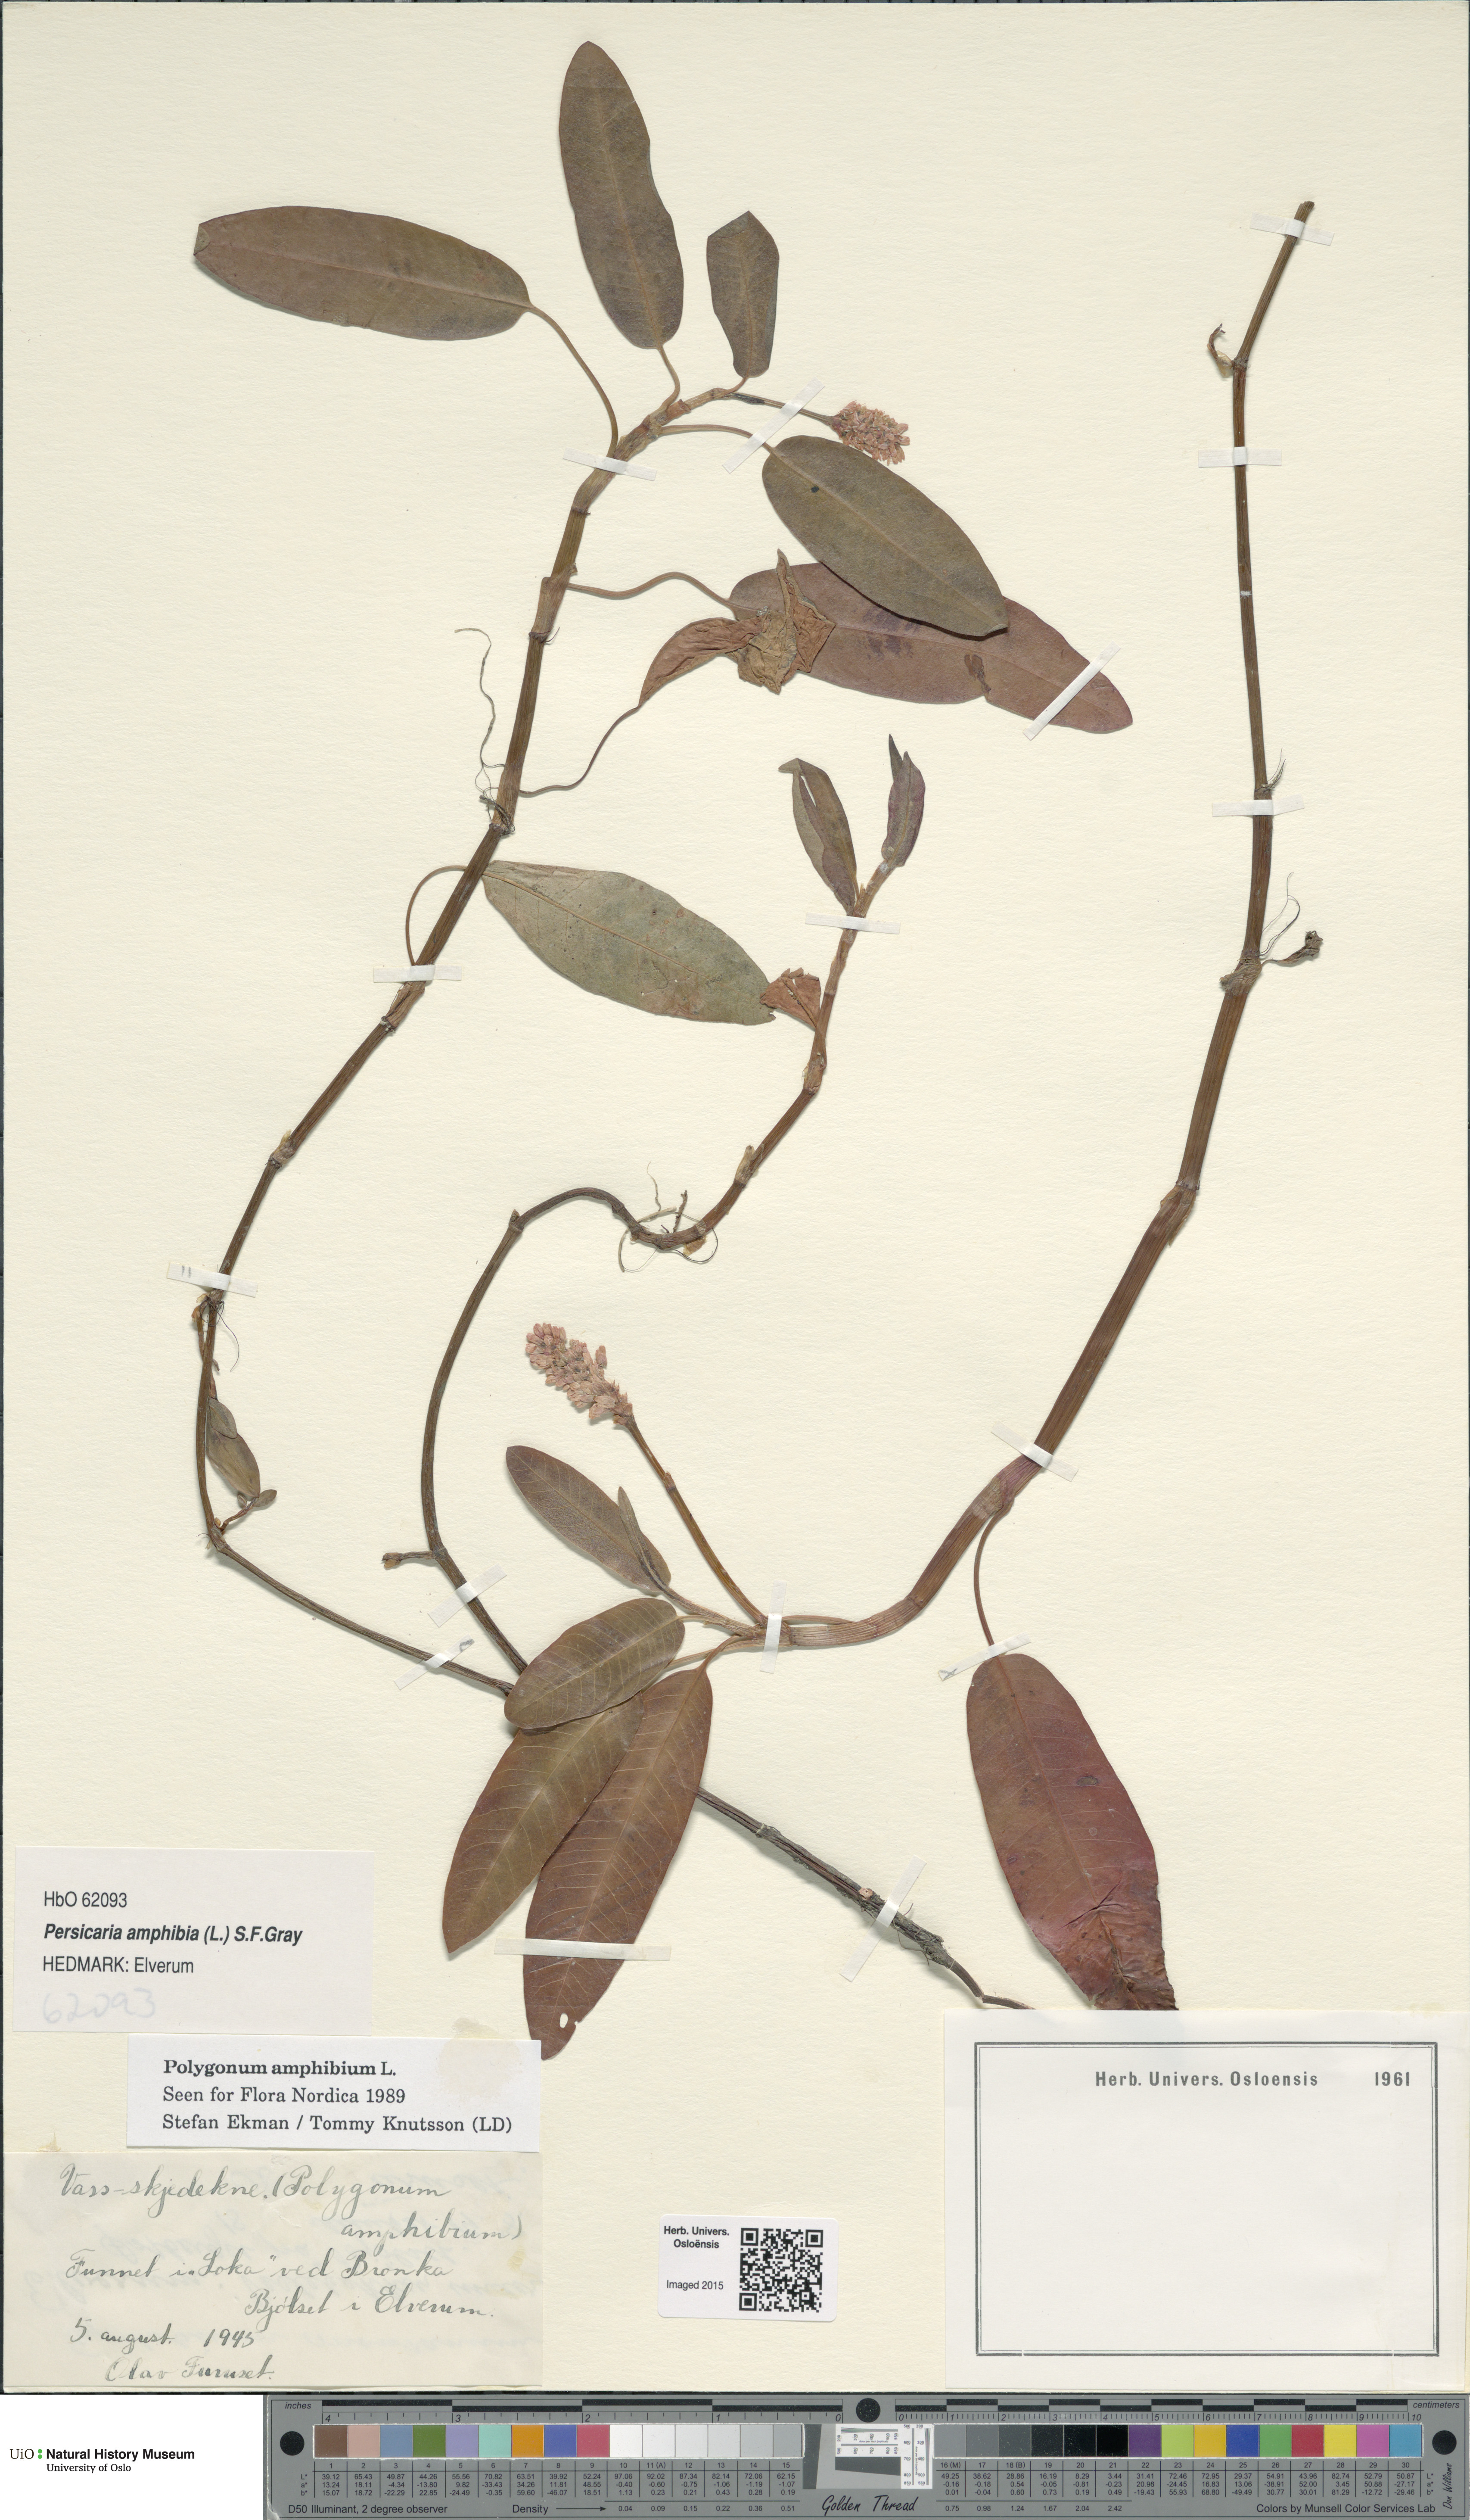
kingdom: Plantae
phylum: Tracheophyta
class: Magnoliopsida
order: Caryophyllales
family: Polygonaceae
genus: Persicaria
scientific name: Persicaria amphibia
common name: Amphibious bistort
